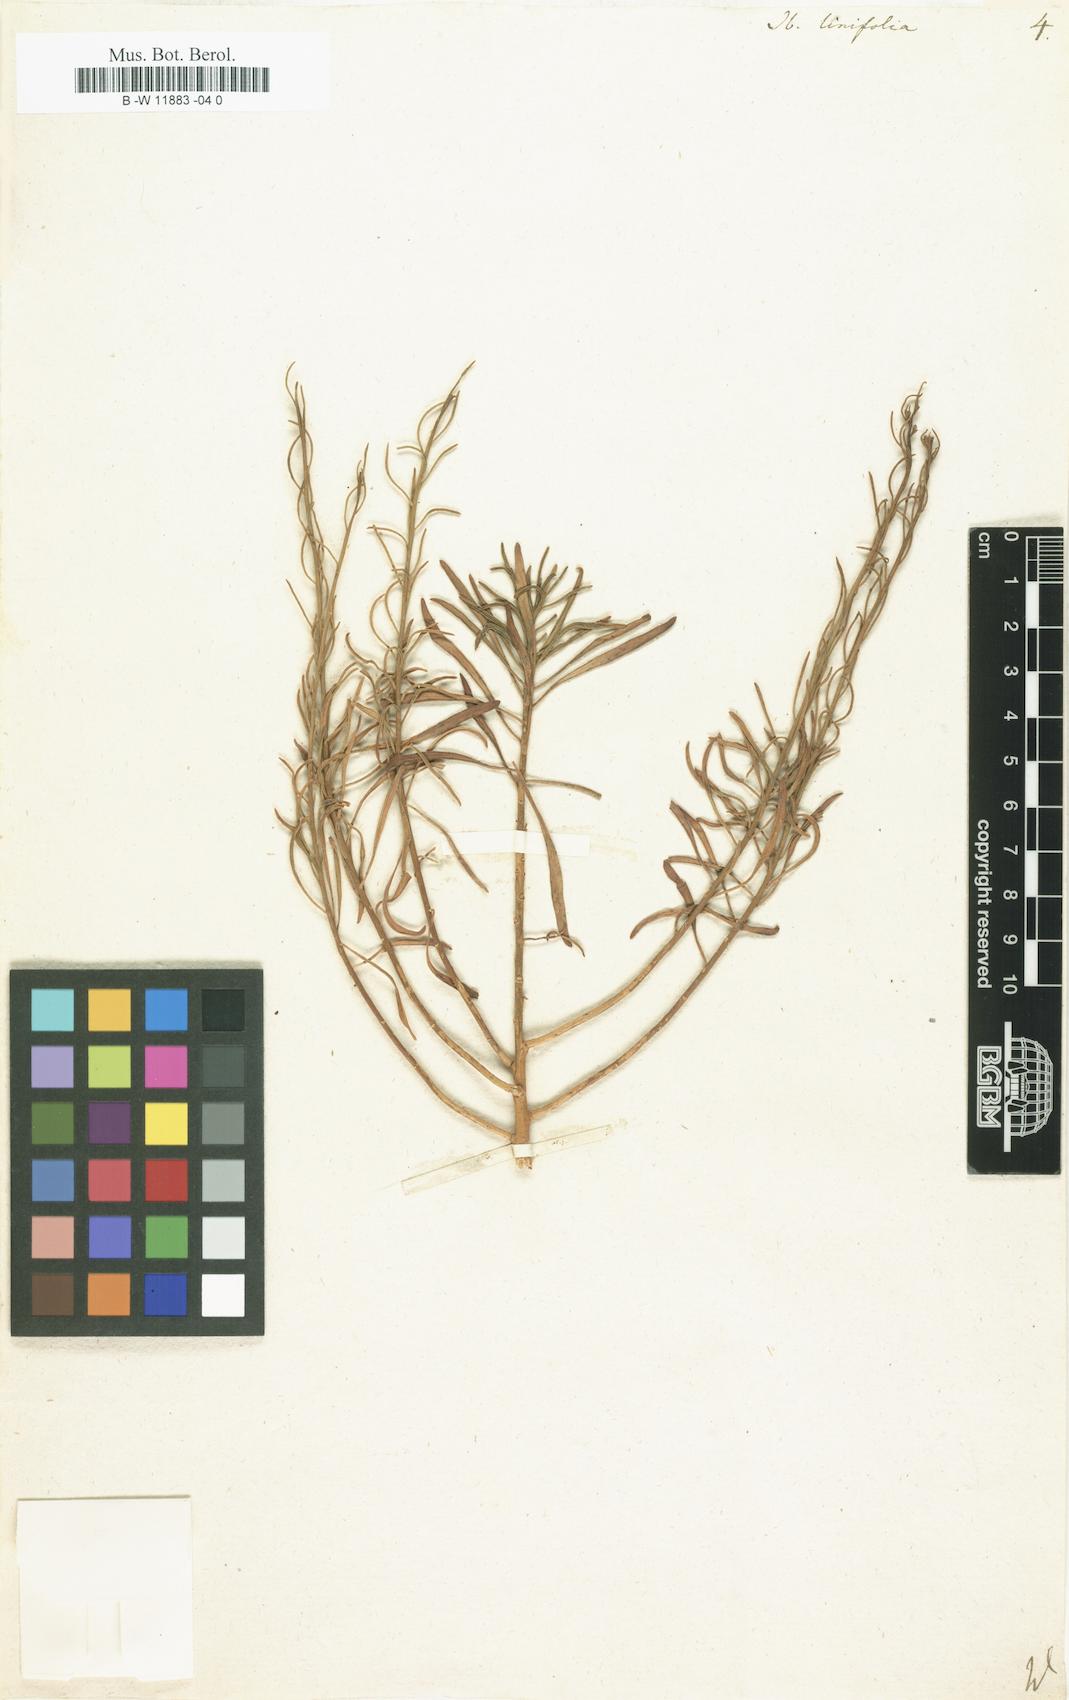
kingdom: Plantae
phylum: Tracheophyta
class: Magnoliopsida
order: Brassicales
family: Brassicaceae
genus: Iberis
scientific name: Iberis linifolia
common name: Candytuft
